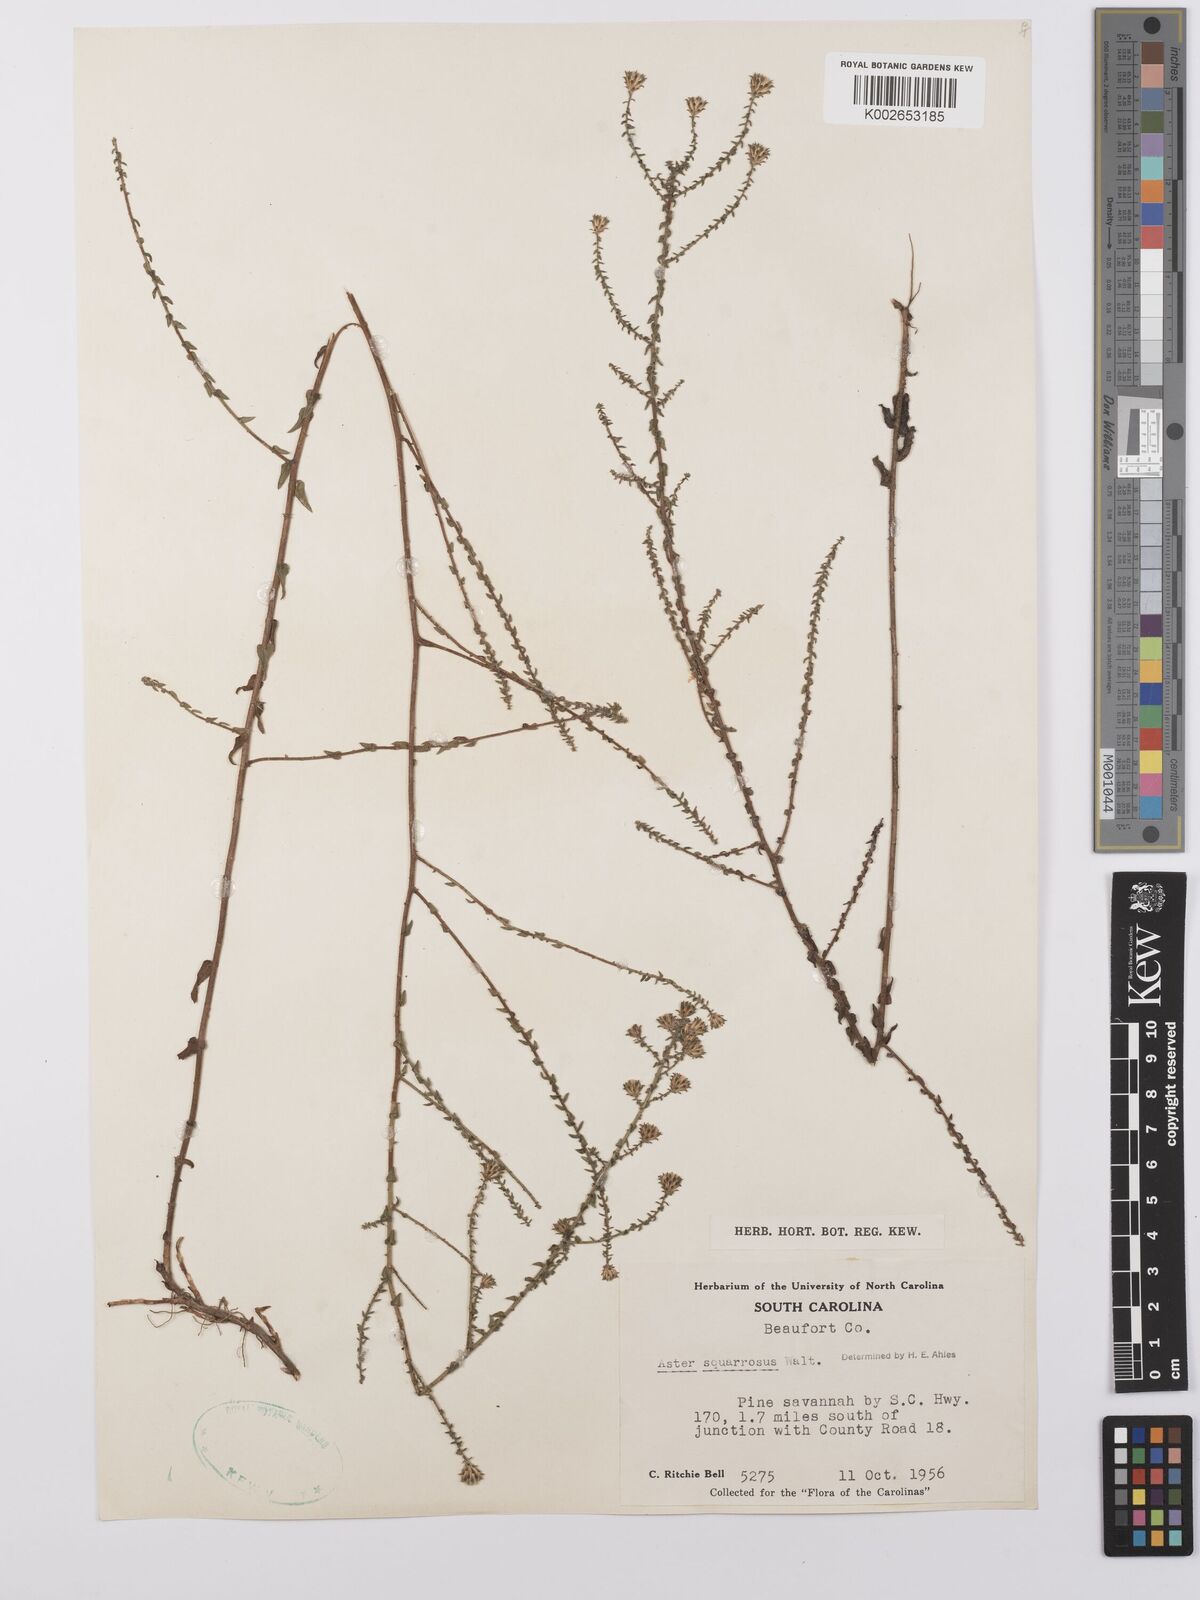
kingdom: Plantae
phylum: Tracheophyta
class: Magnoliopsida
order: Asterales
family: Asteraceae
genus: Aster
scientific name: Aster
